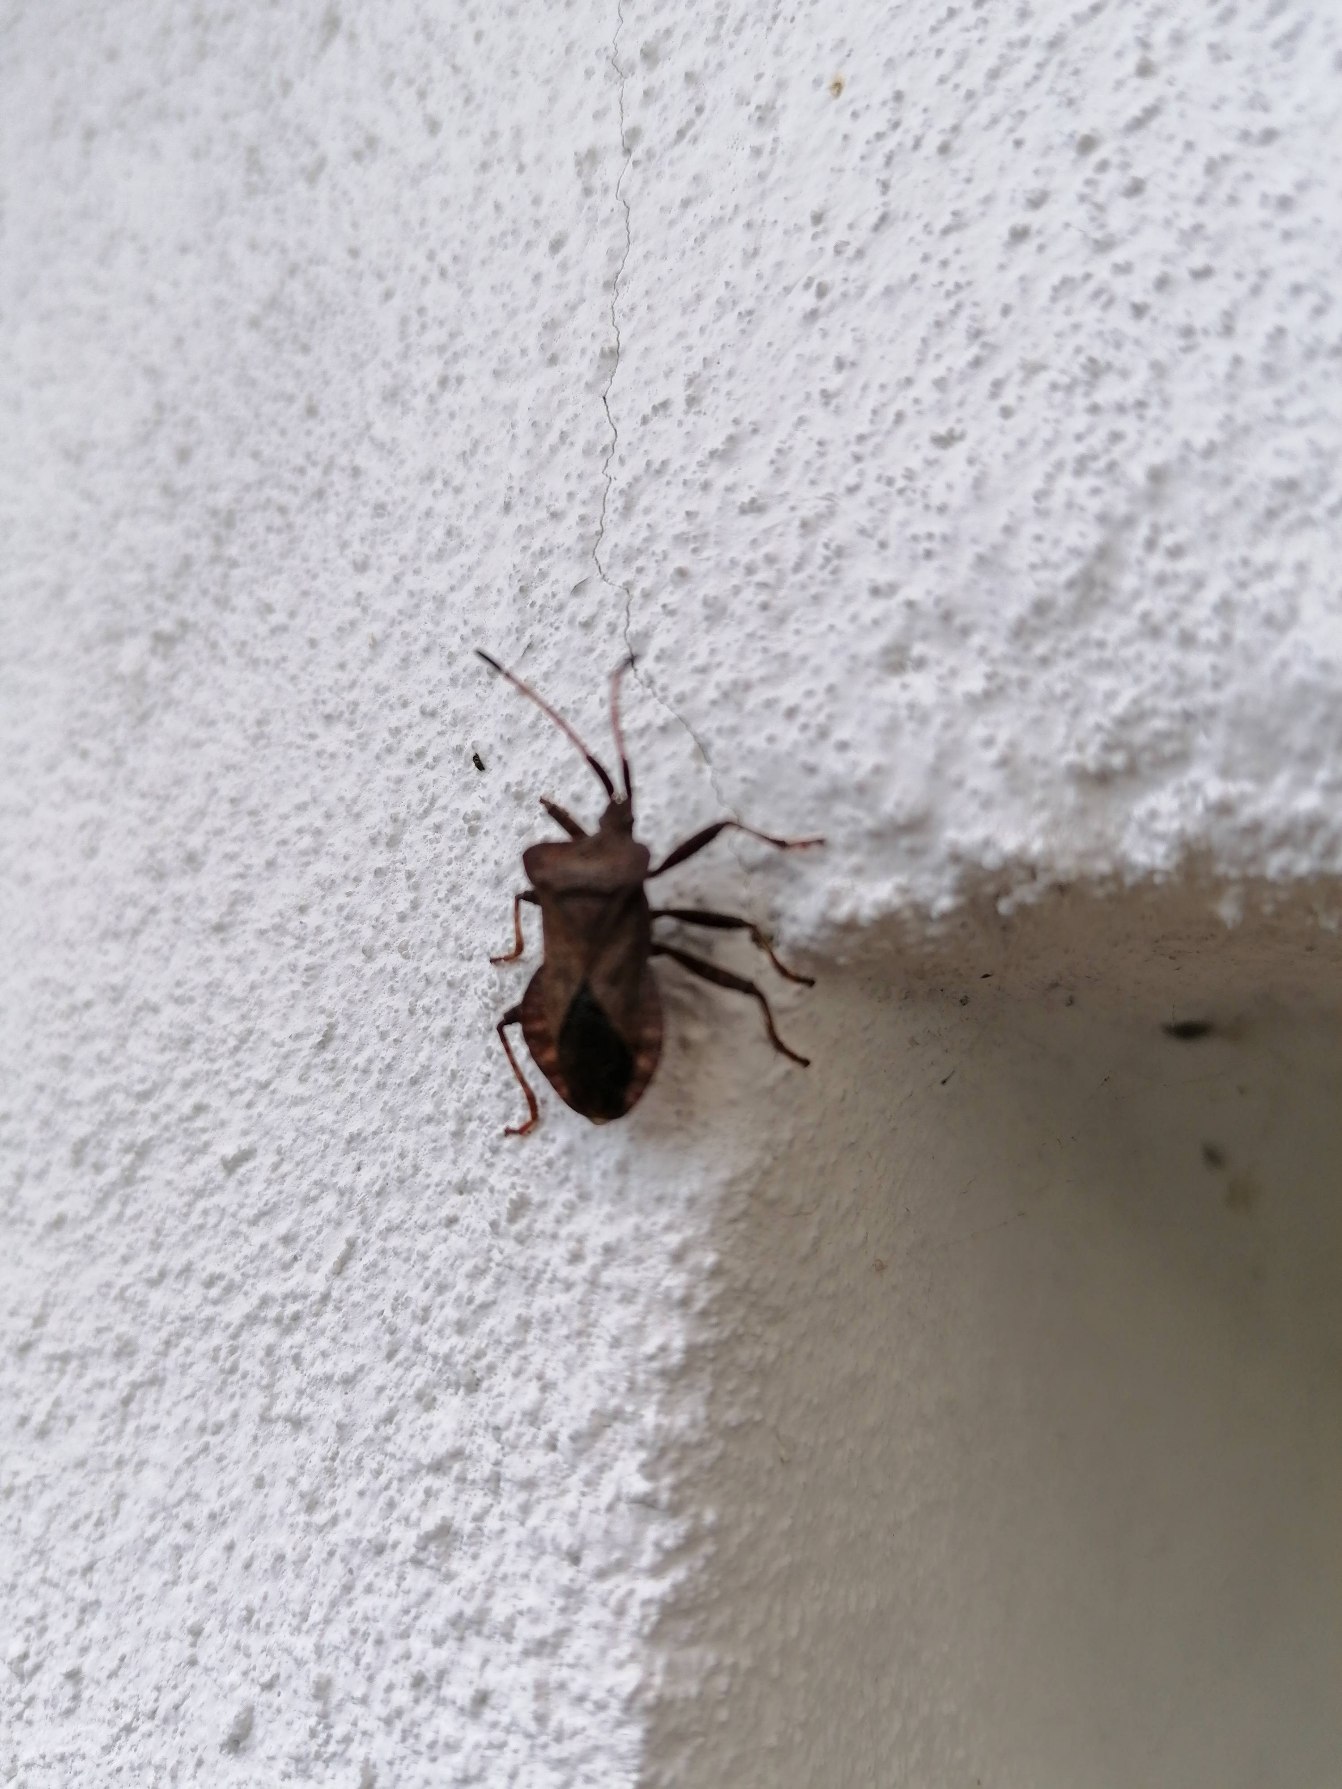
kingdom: Animalia
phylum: Arthropoda
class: Insecta
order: Hemiptera
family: Coreidae
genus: Coreus
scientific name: Coreus marginatus
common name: Skræppetæge
